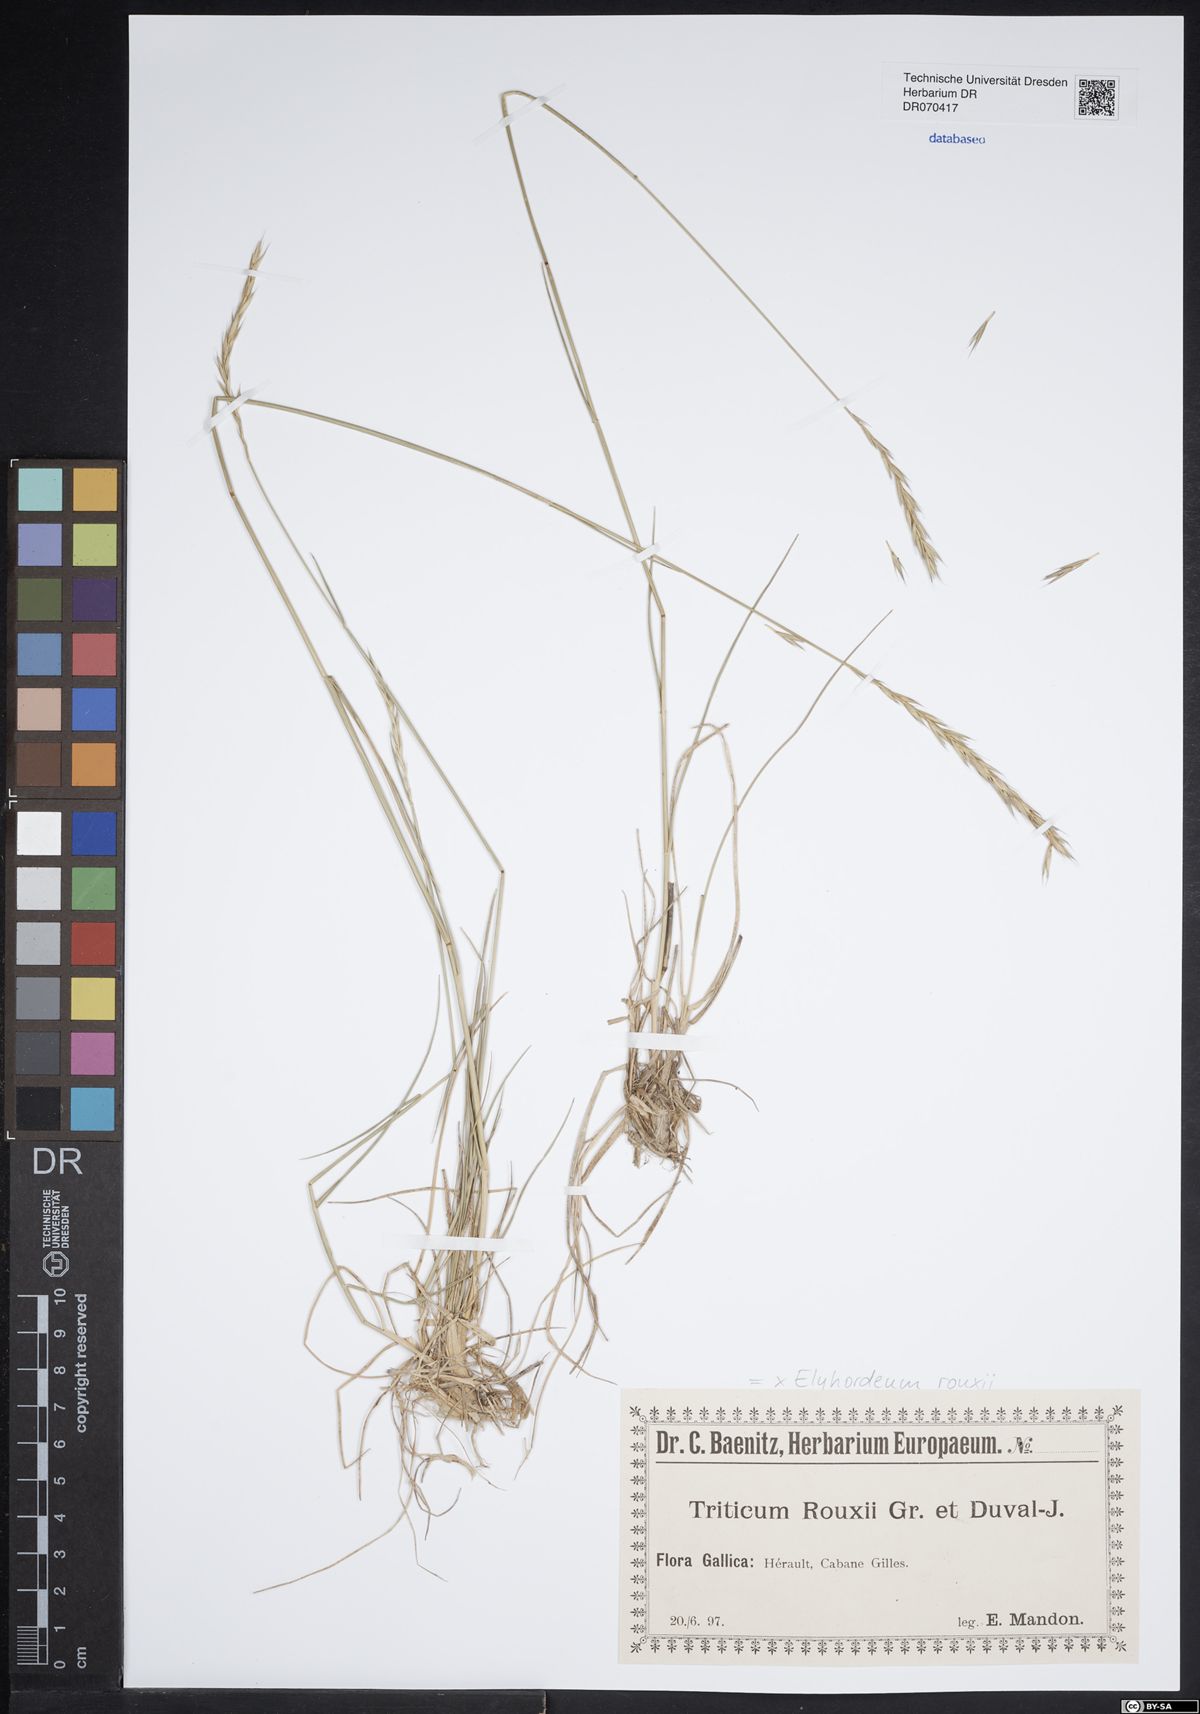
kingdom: Plantae
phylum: Tracheophyta
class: Liliopsida
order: Poales
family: Poaceae
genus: Elyhordeum
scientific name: Elyhordeum rouxii
